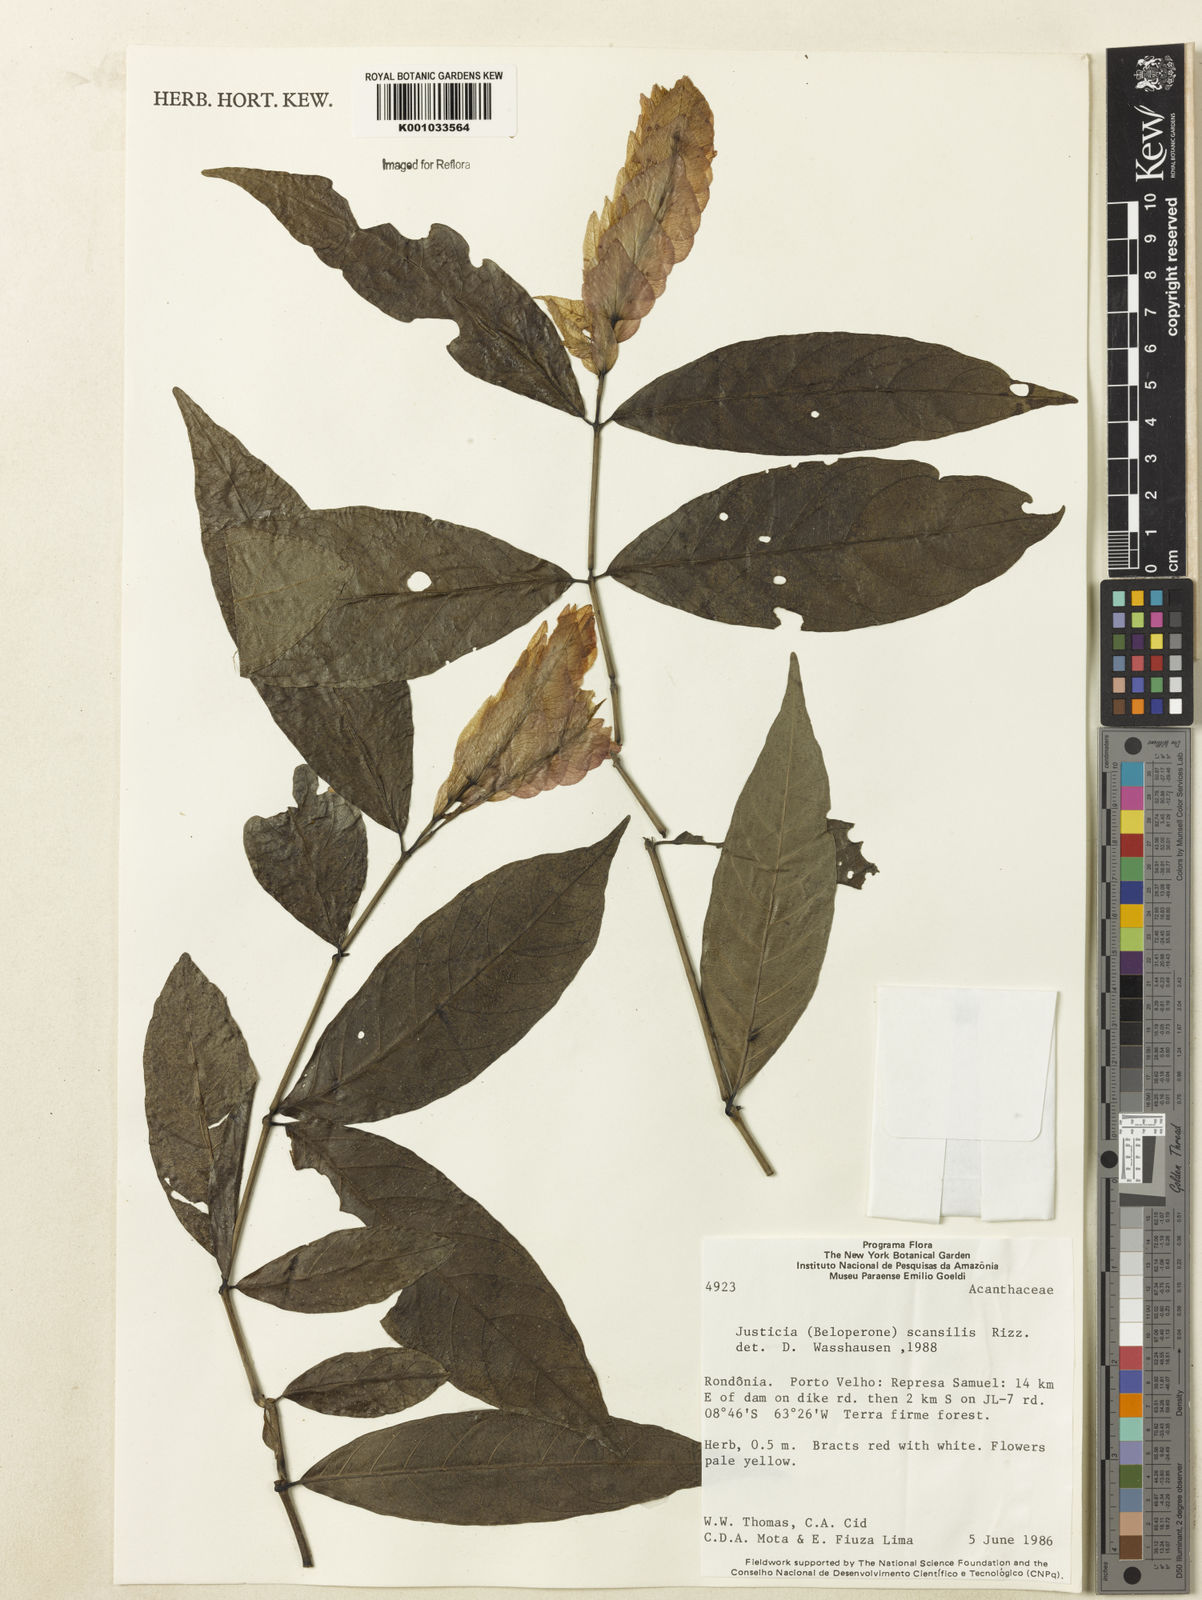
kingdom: Plantae
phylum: Tracheophyta
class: Magnoliopsida
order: Lamiales
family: Acanthaceae
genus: Justicia
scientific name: Justicia scansilis
